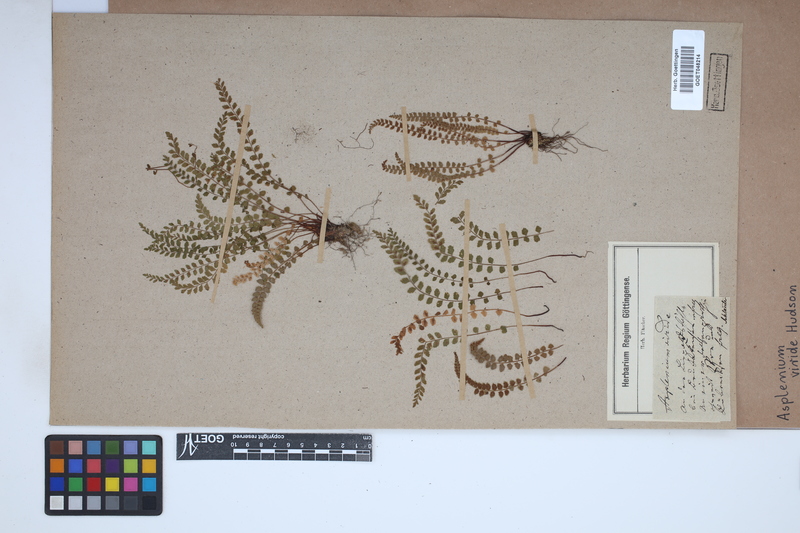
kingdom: Plantae
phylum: Tracheophyta
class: Polypodiopsida
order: Polypodiales
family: Aspleniaceae
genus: Asplenium
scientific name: Asplenium viride
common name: Green spleenwort
